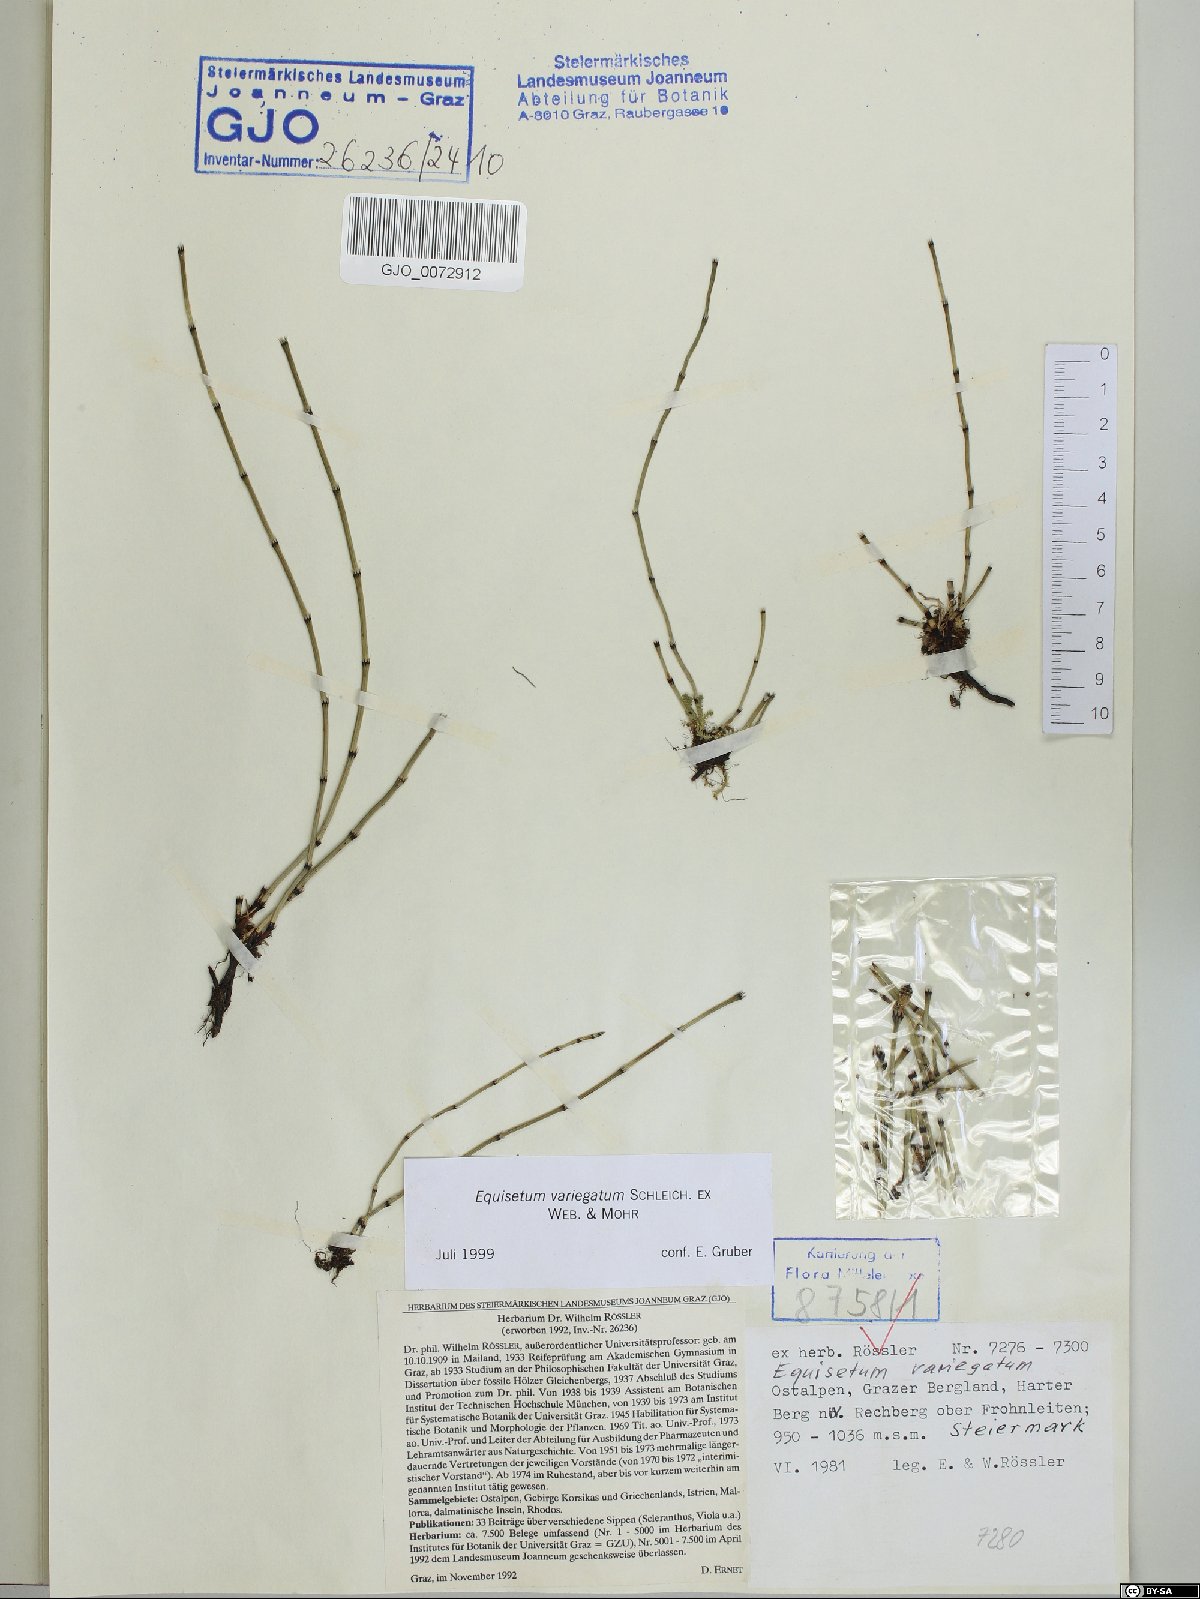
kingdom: Plantae
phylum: Tracheophyta
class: Polypodiopsida
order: Equisetales
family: Equisetaceae
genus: Equisetum
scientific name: Equisetum variegatum
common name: Variegated horsetail
